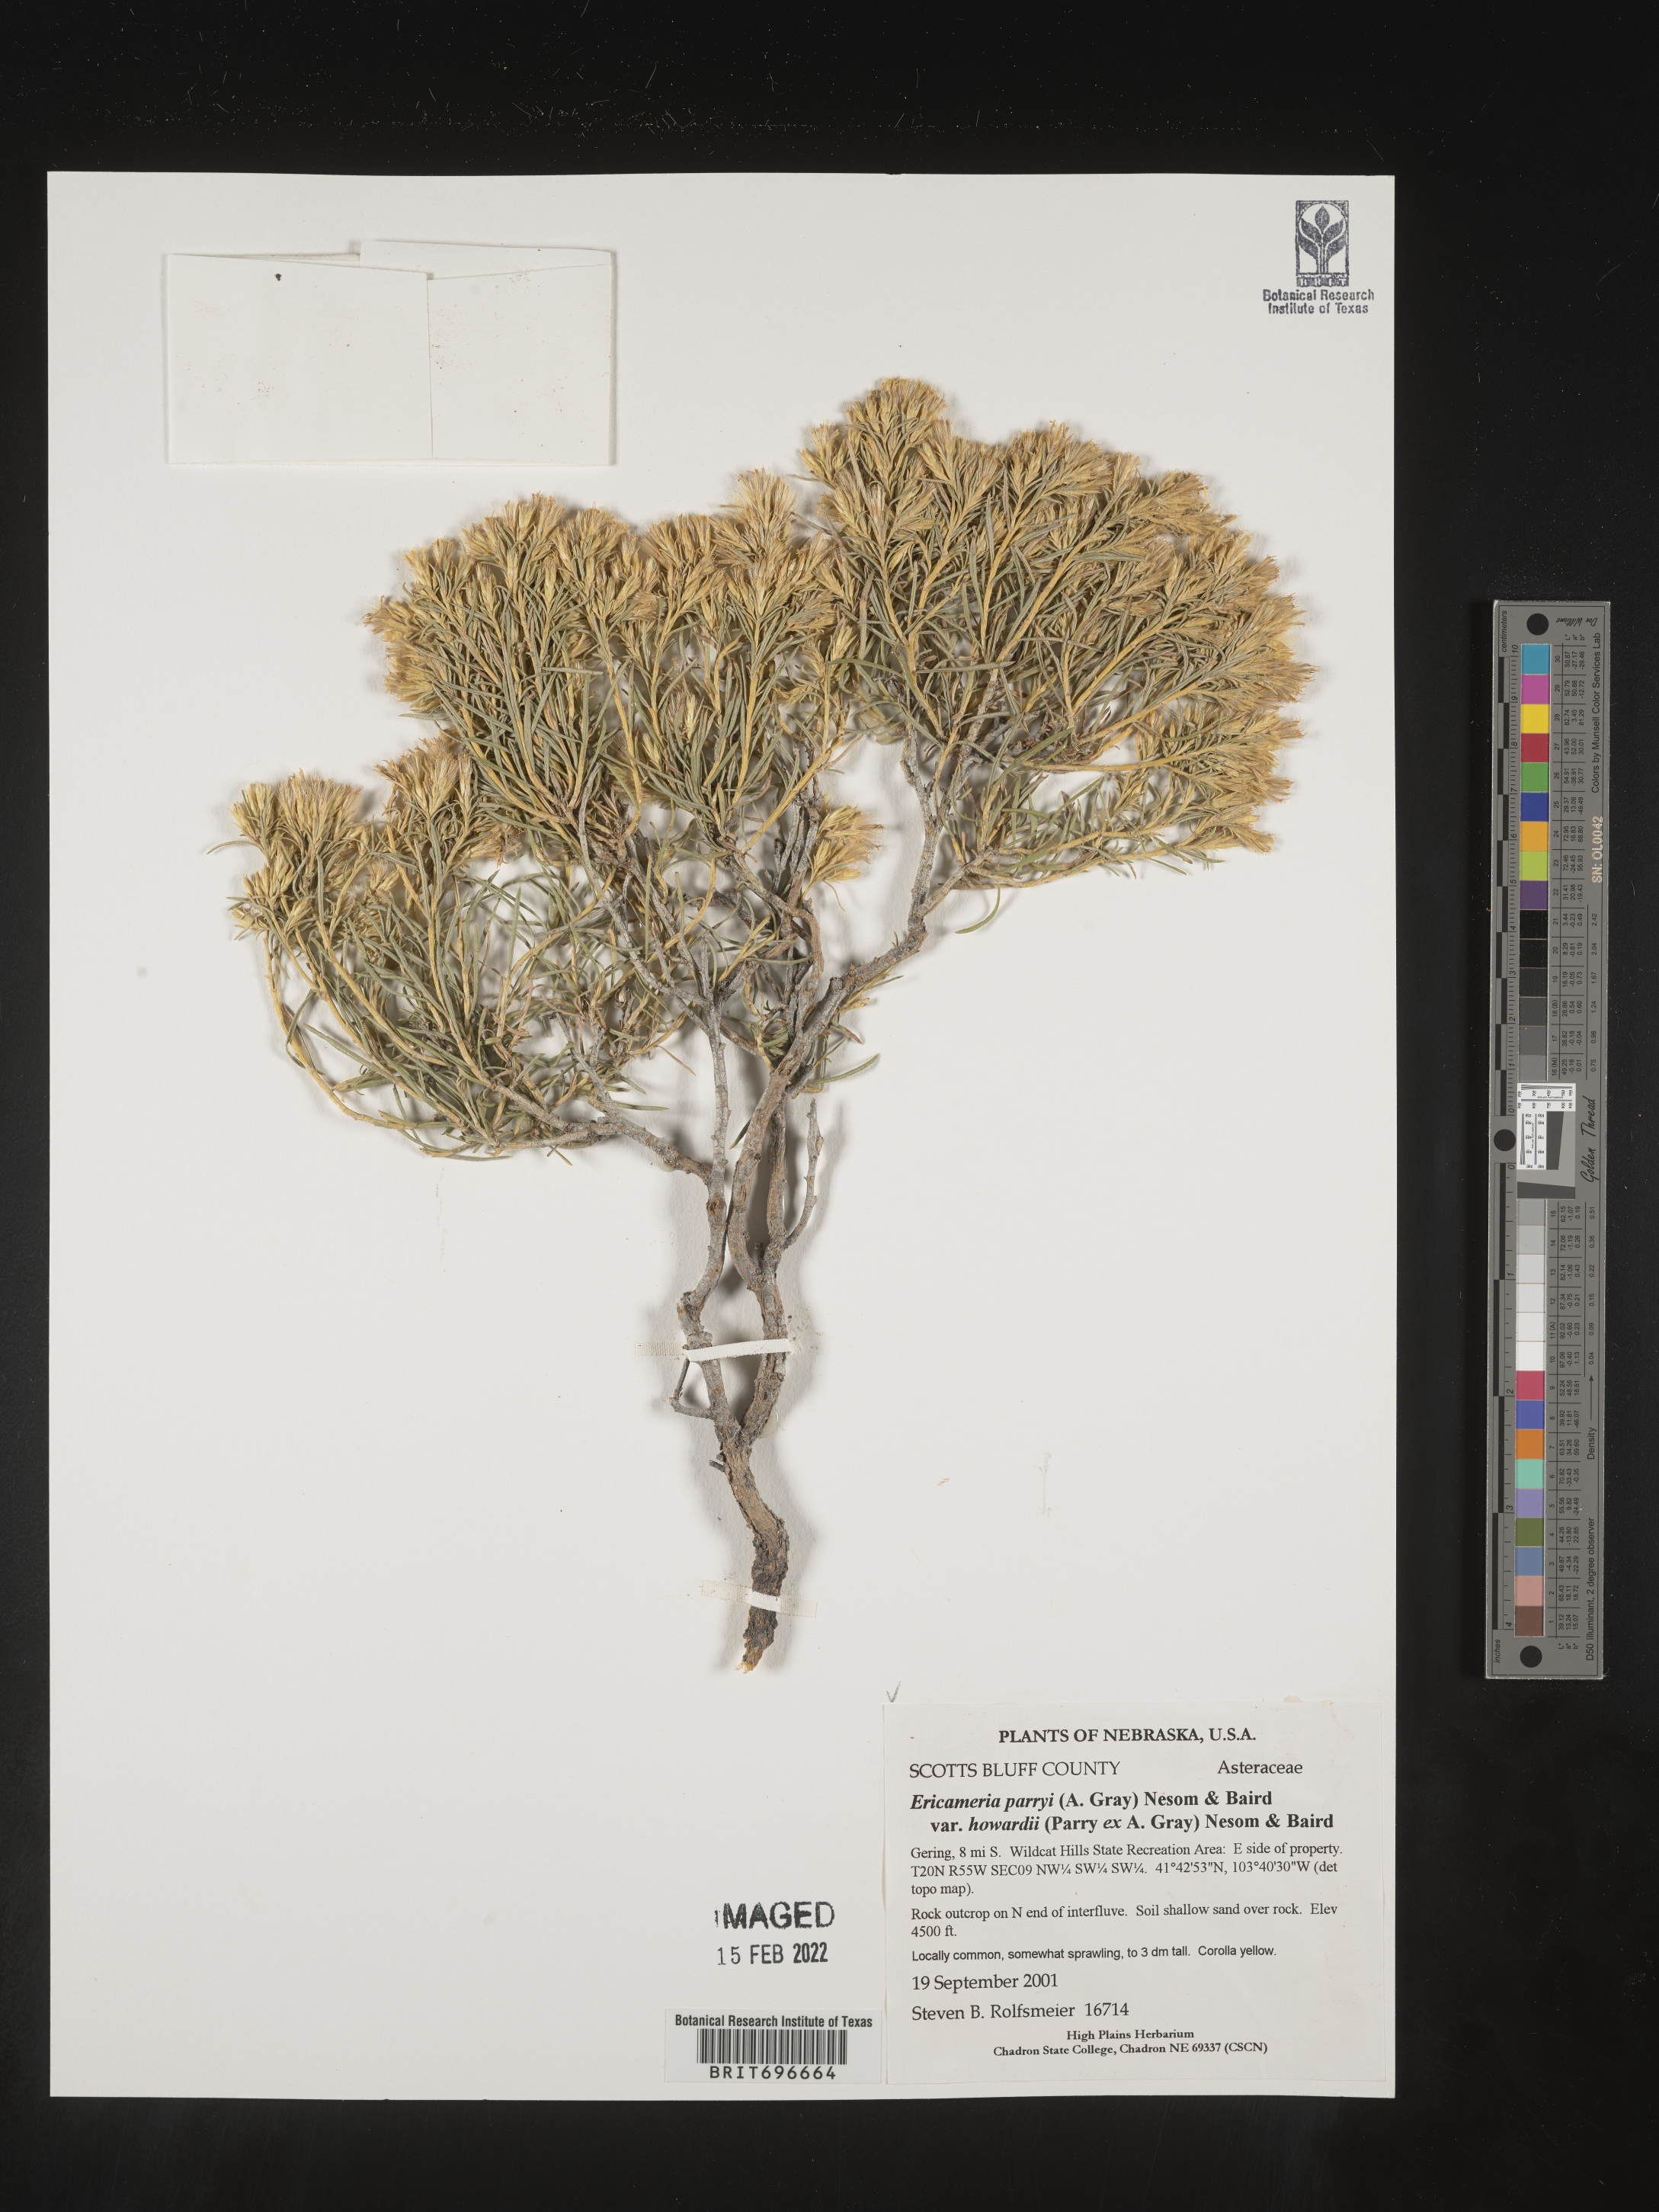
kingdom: Plantae
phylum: Tracheophyta
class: Magnoliopsida
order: Asterales
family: Asteraceae
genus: Ericameria
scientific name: Ericameria parryi
